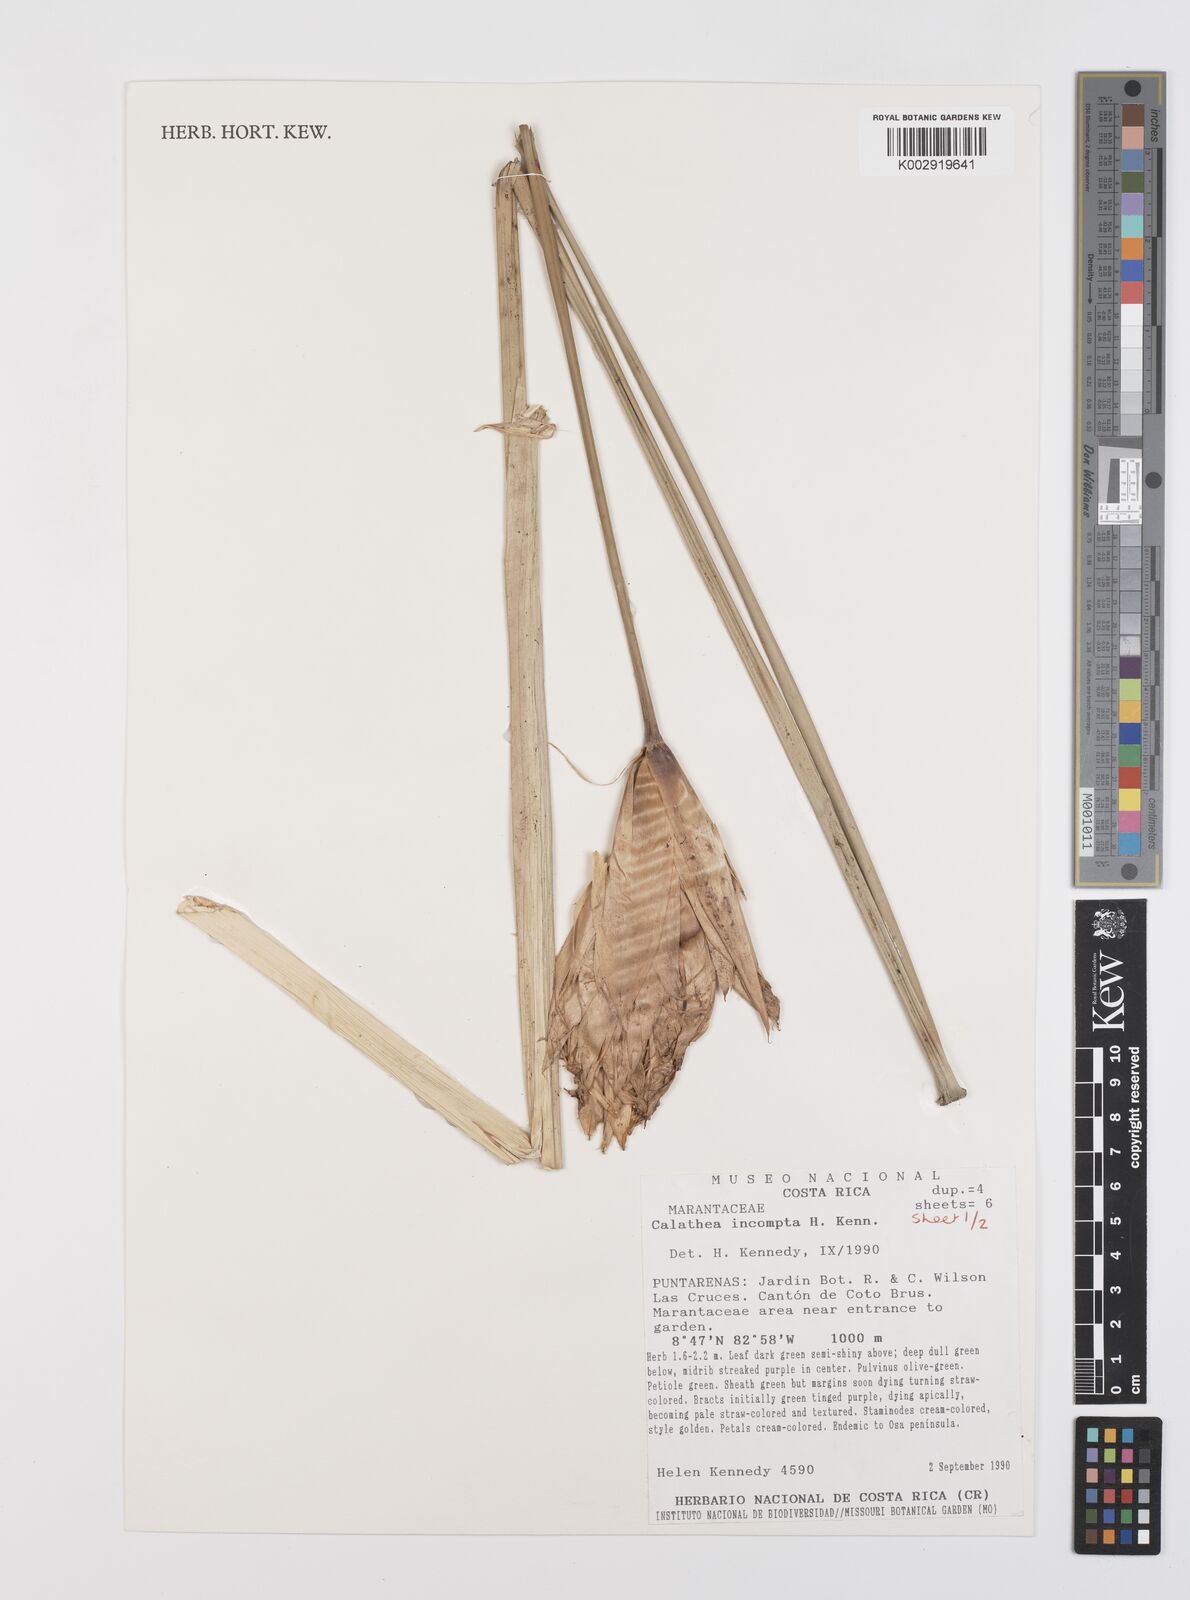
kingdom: Plantae
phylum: Tracheophyta
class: Liliopsida
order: Zingiberales
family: Marantaceae
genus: Goeppertia
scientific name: Goeppertia incompta
